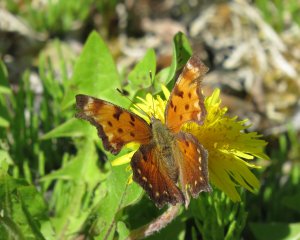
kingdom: Animalia
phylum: Arthropoda
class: Insecta
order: Lepidoptera
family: Nymphalidae
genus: Polygonia
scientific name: Polygonia faunus
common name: Green Comma
